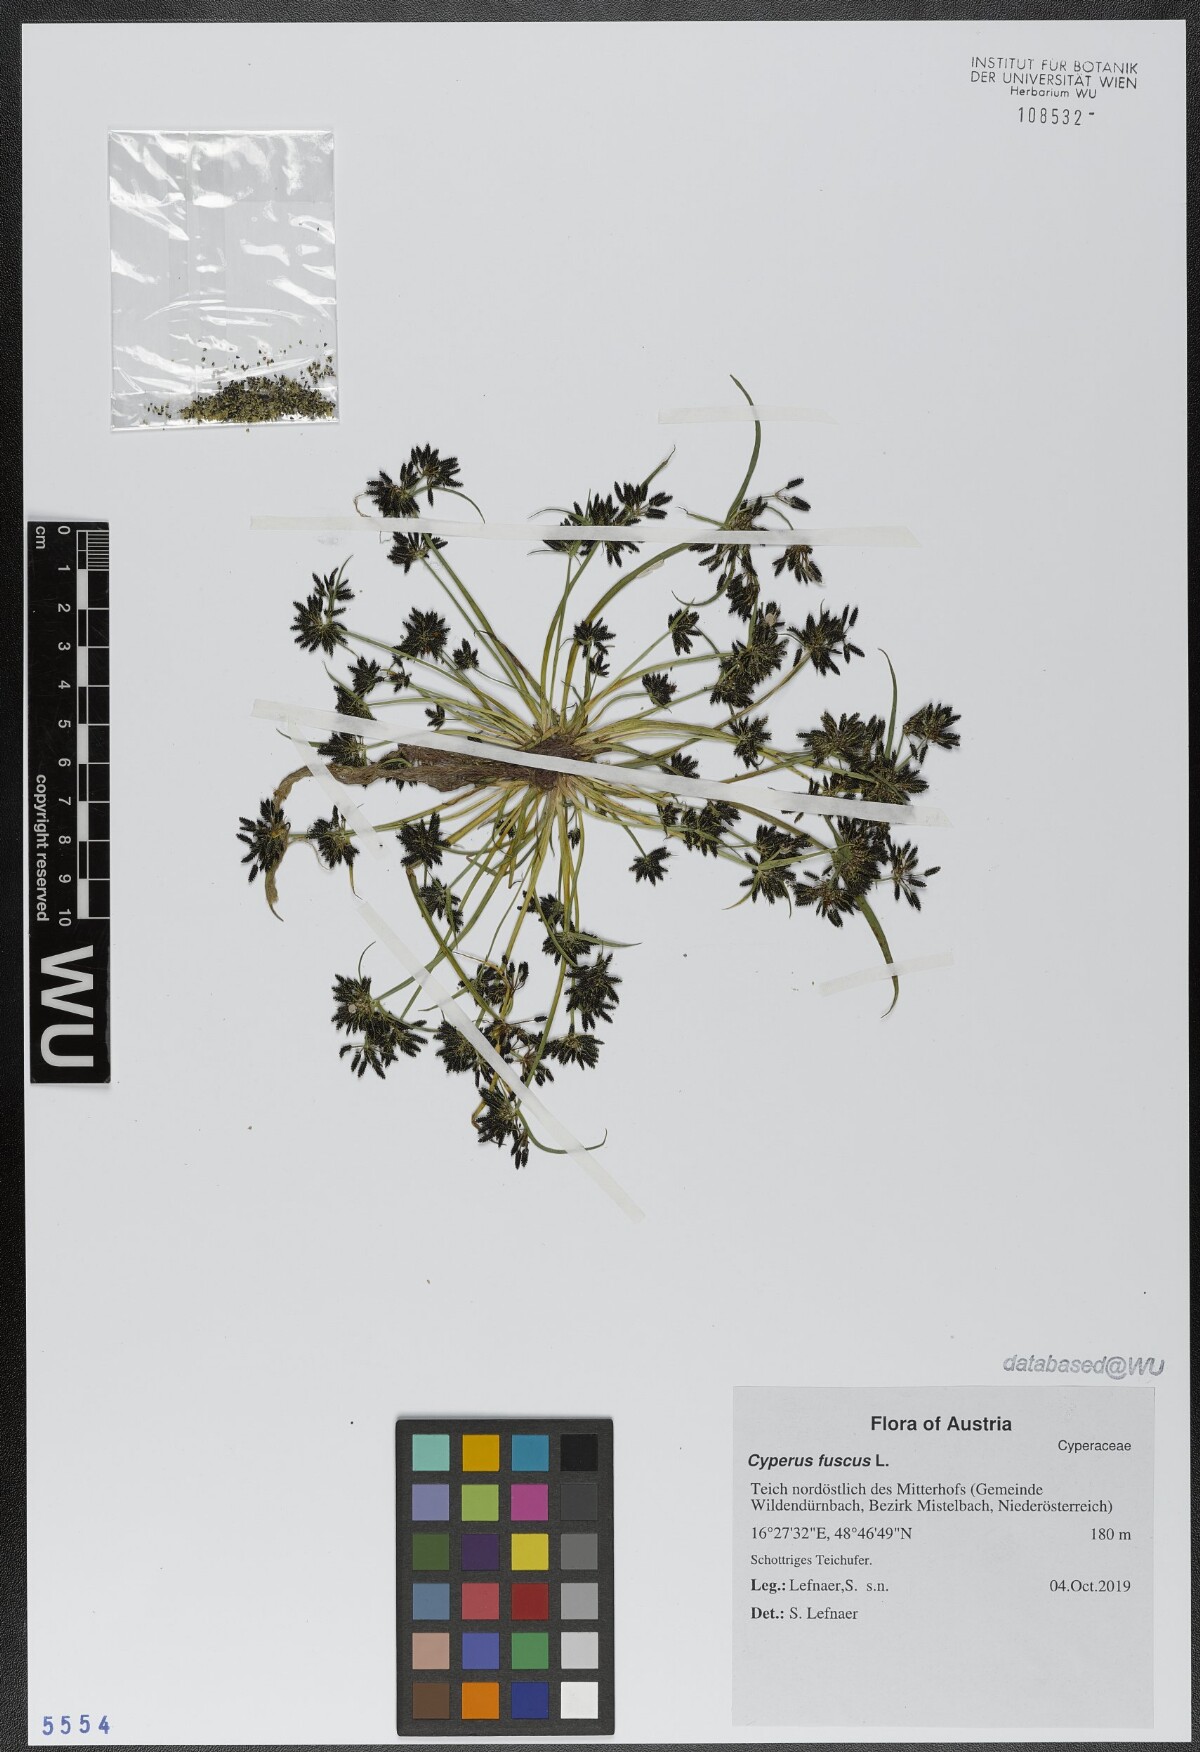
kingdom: Plantae
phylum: Tracheophyta
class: Liliopsida
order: Poales
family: Cyperaceae
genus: Cyperus
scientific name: Cyperus fuscus
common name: Brown galingale
